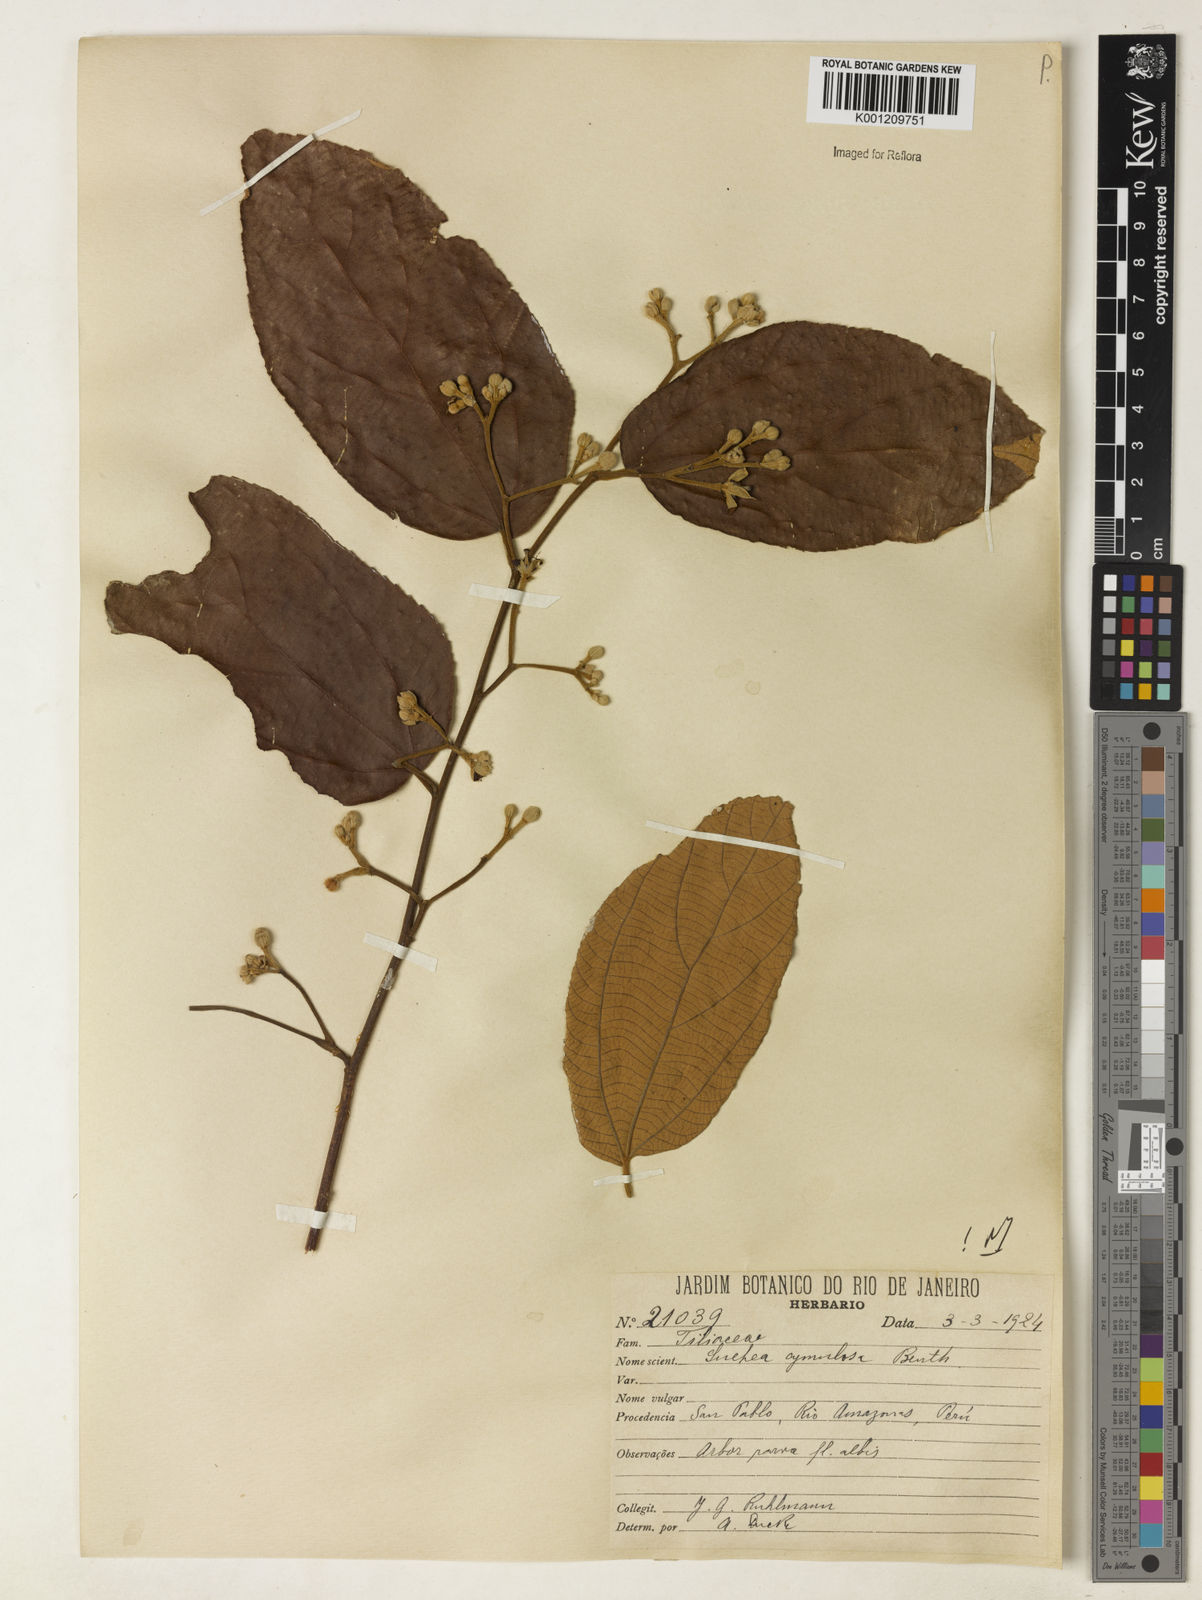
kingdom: Plantae
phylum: Tracheophyta
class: Magnoliopsida
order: Malvales
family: Malvaceae
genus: Luehea
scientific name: Luehea cymulosa
